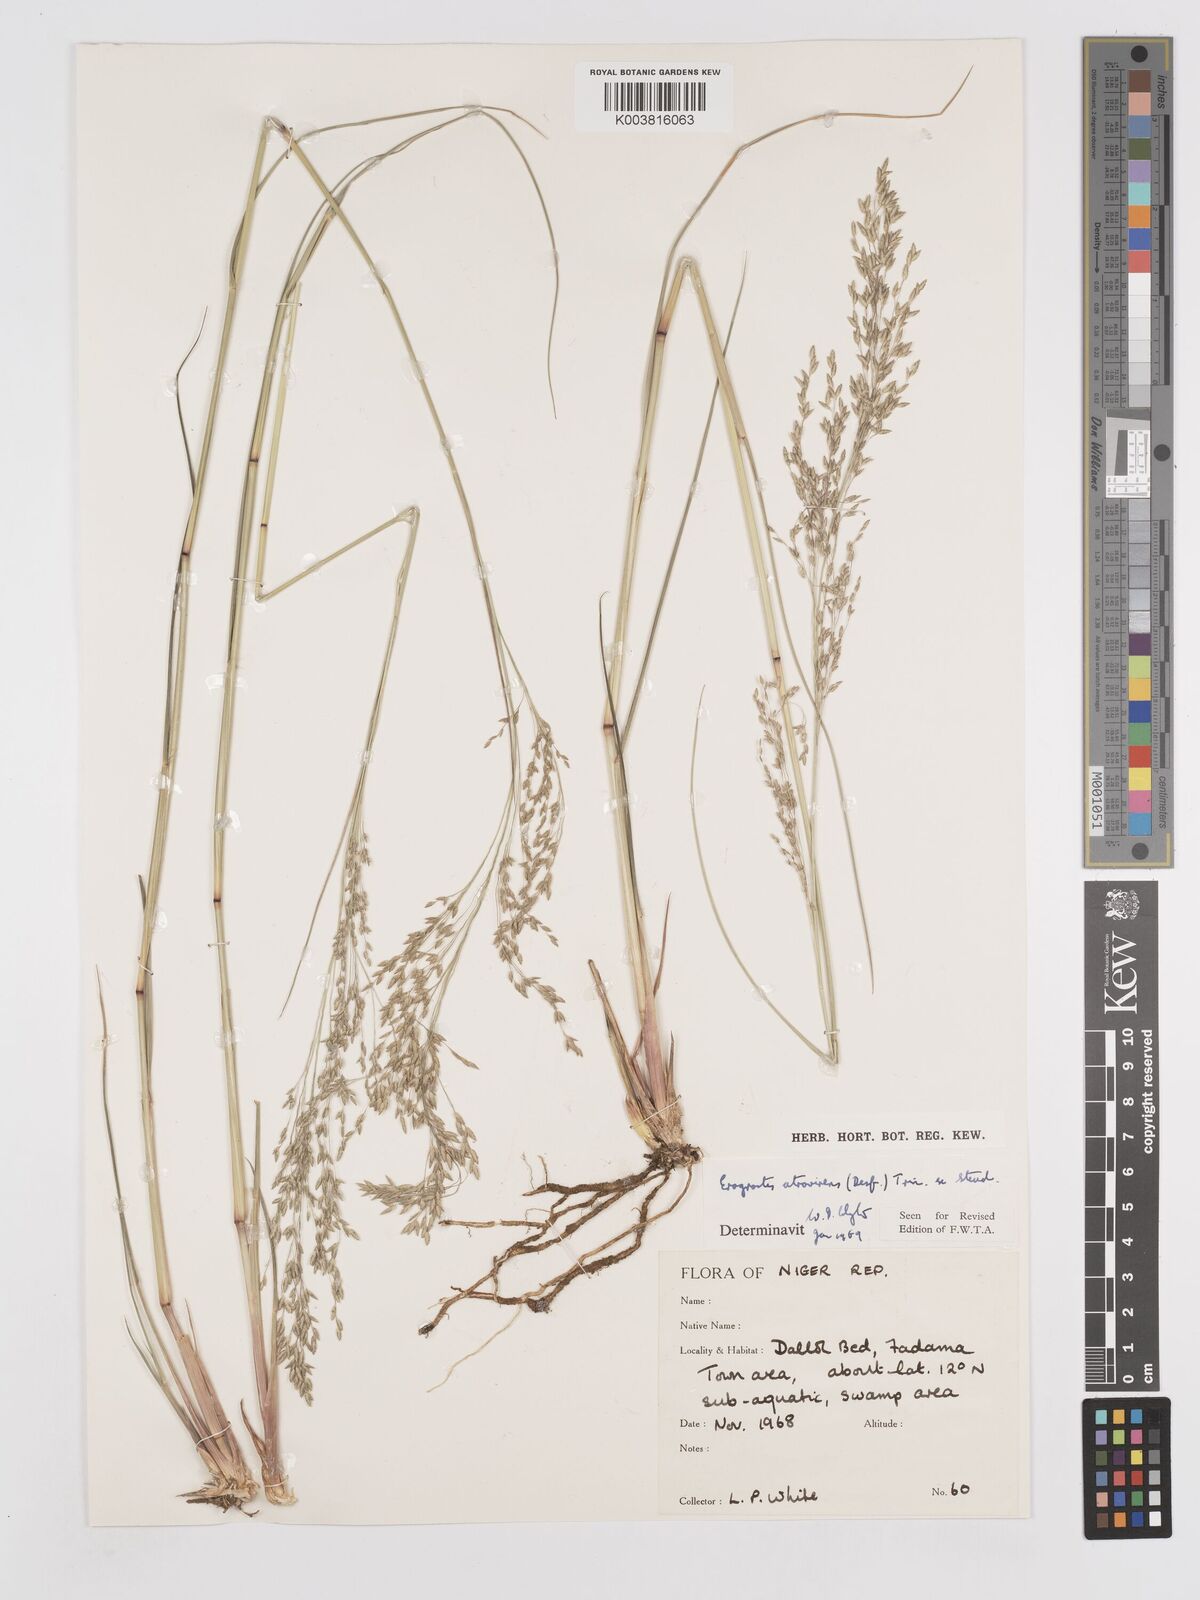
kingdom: Plantae
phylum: Tracheophyta
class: Liliopsida
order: Poales
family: Poaceae
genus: Eragrostis
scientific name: Eragrostis atrovirens
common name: Thalia lovegrass
